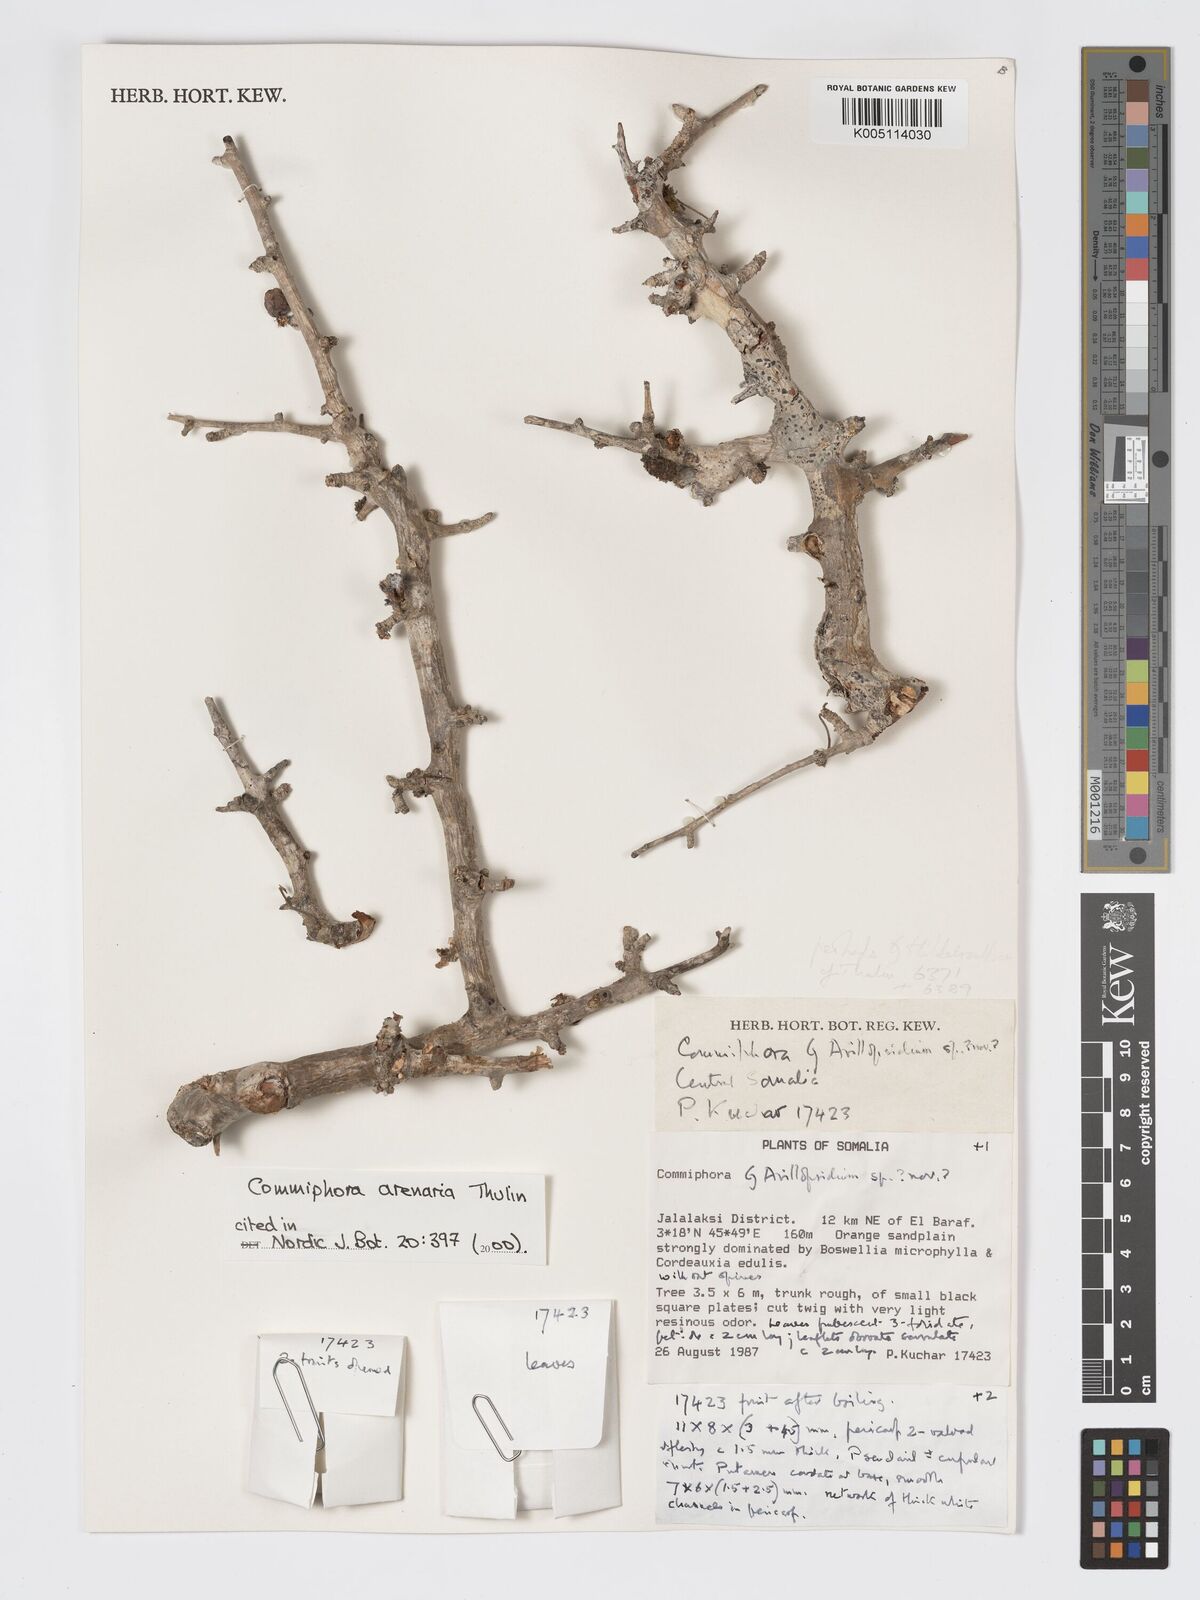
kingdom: Plantae
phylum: Tracheophyta
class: Magnoliopsida
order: Sapindales
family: Burseraceae
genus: Commiphora
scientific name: Commiphora arenaria
